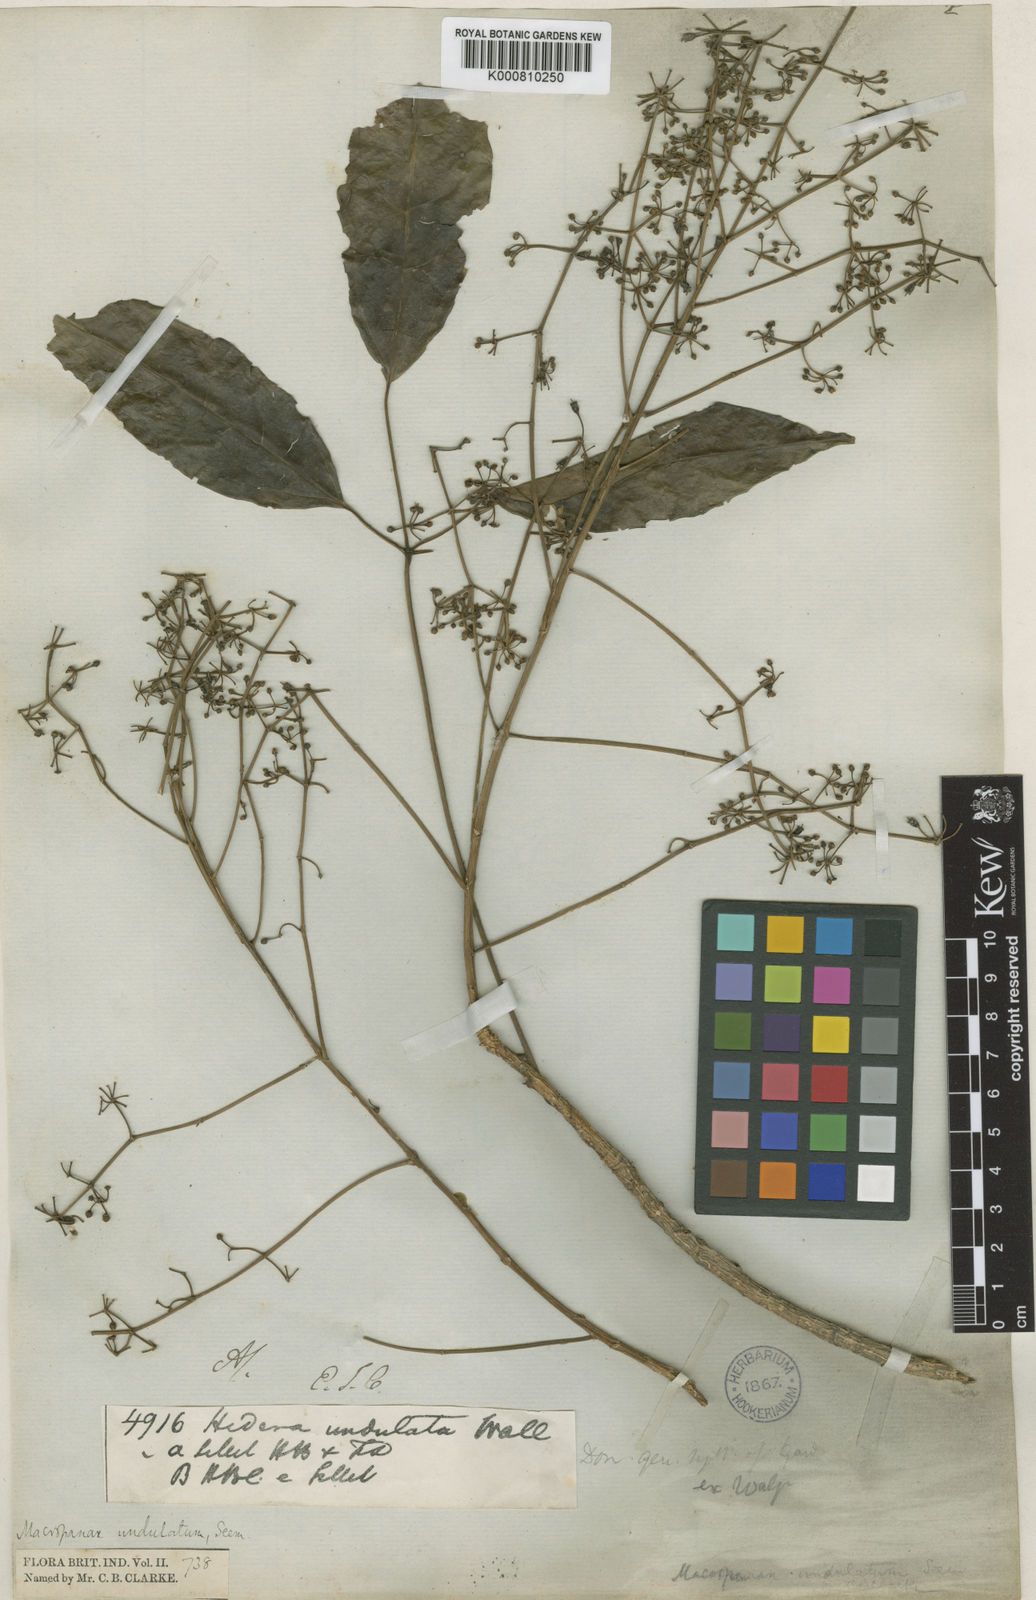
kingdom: Plantae
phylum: Tracheophyta
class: Magnoliopsida
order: Apiales
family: Araliaceae
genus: Macropanax
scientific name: Macropanax undulatus
